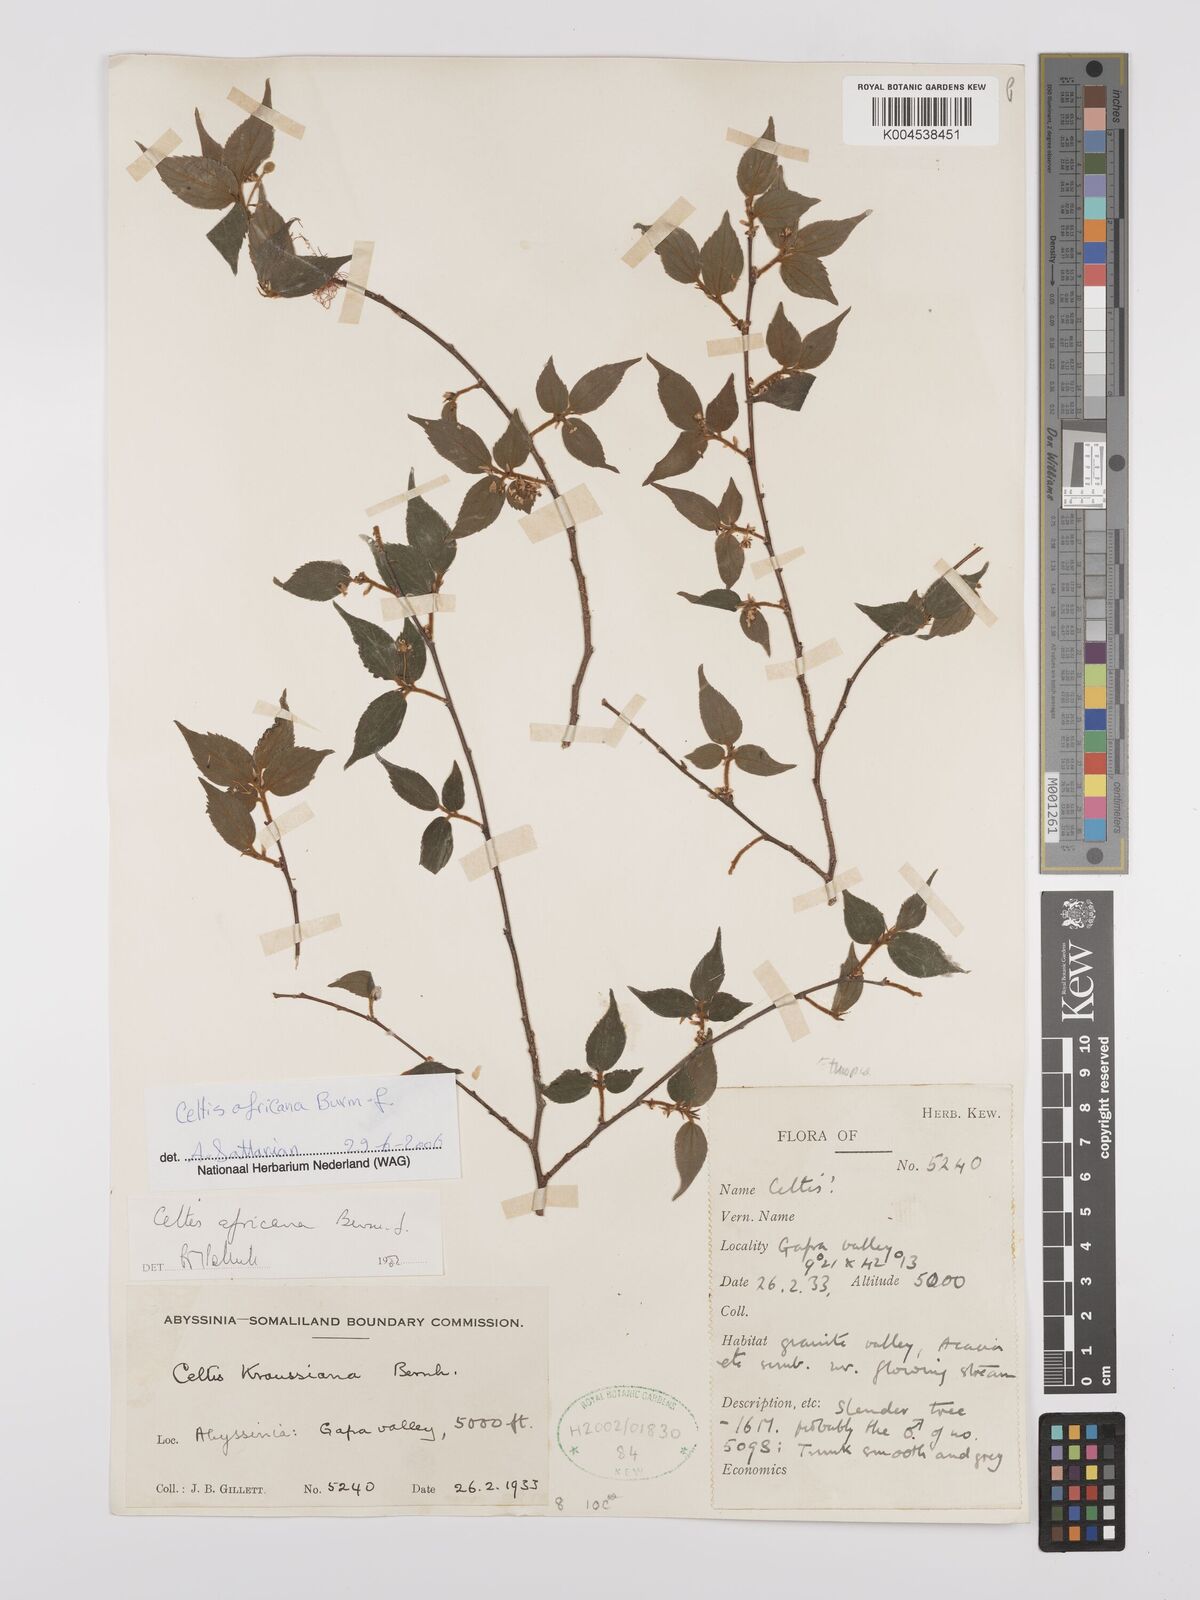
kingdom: Plantae
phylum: Tracheophyta
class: Magnoliopsida
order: Rosales
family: Cannabaceae
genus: Celtis
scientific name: Celtis africana
